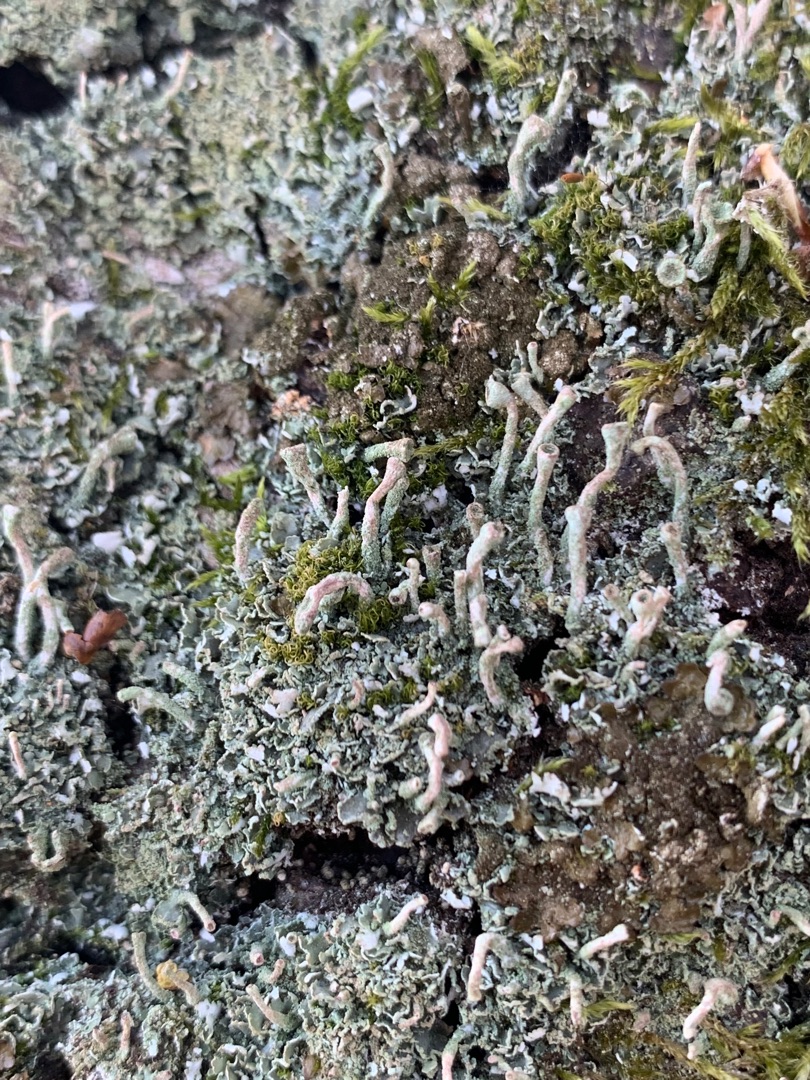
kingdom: Fungi
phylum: Ascomycota
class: Lecanoromycetes
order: Lecanorales
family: Cladoniaceae
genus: Cladonia
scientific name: Cladonia chlorophaea
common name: Brungrøn bægerlav
